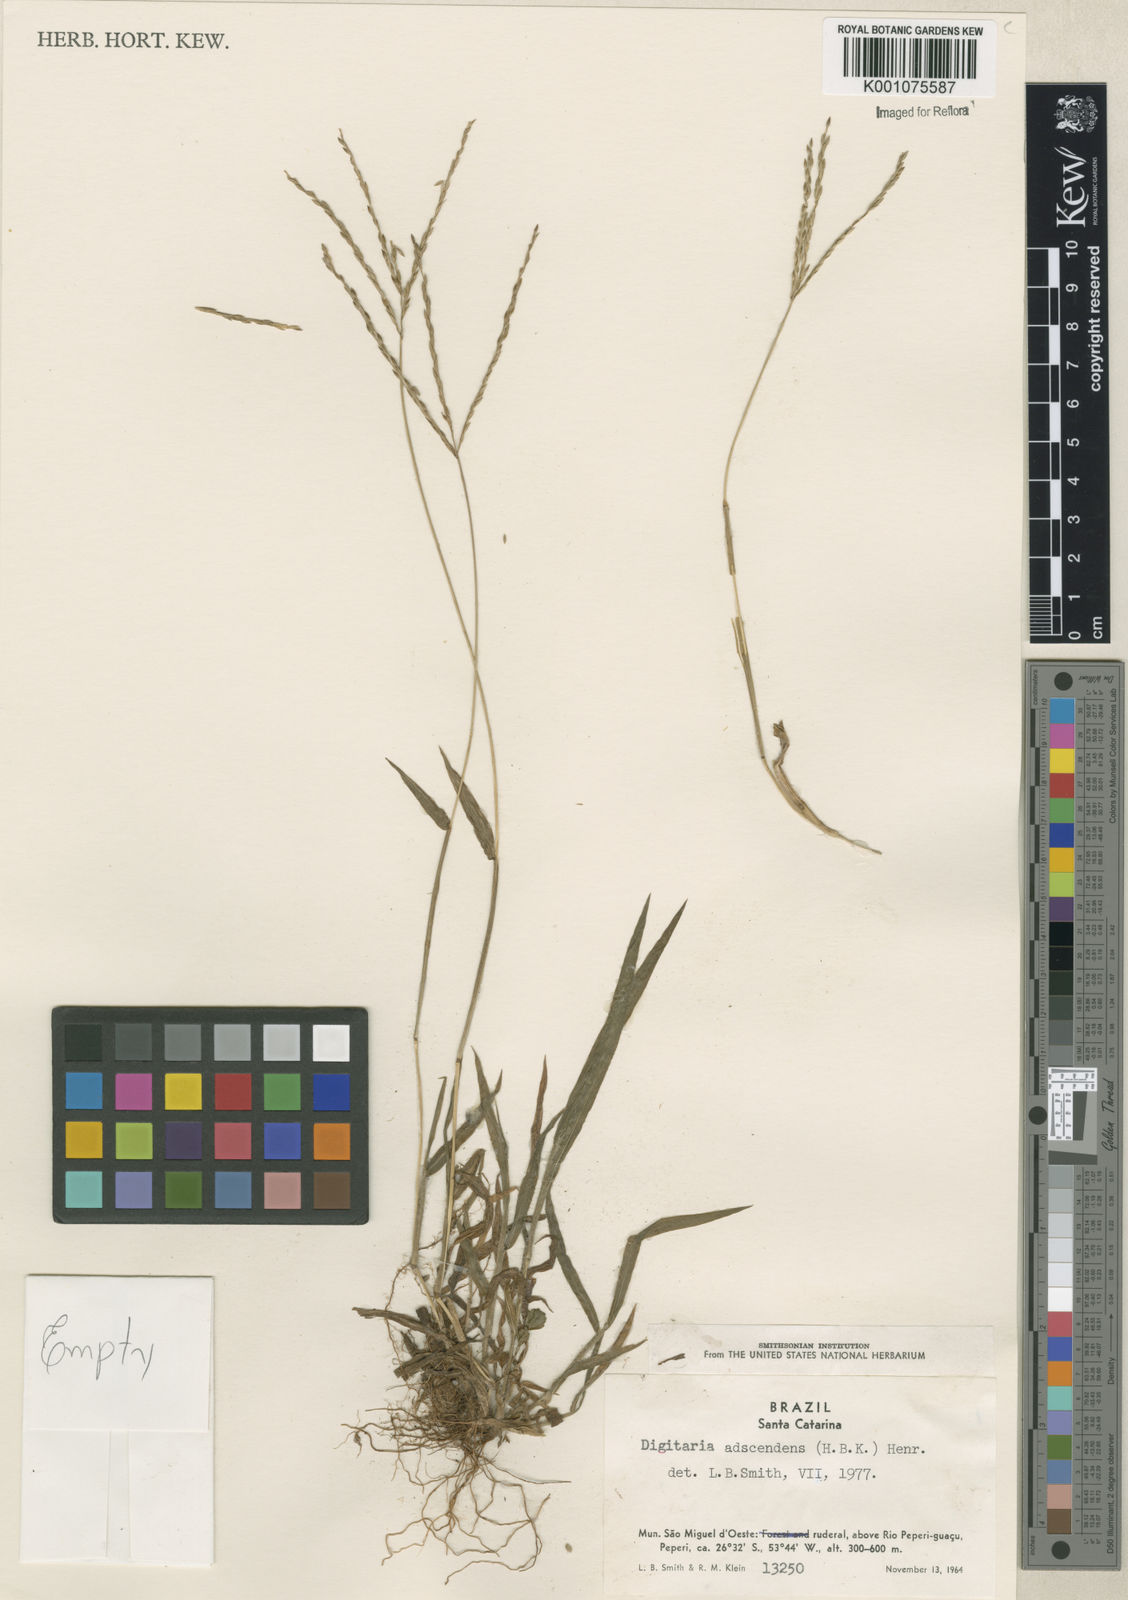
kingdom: Plantae
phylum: Tracheophyta
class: Liliopsida
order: Poales
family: Poaceae
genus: Digitaria
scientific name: Digitaria ciliaris
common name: Tropical finger-grass
